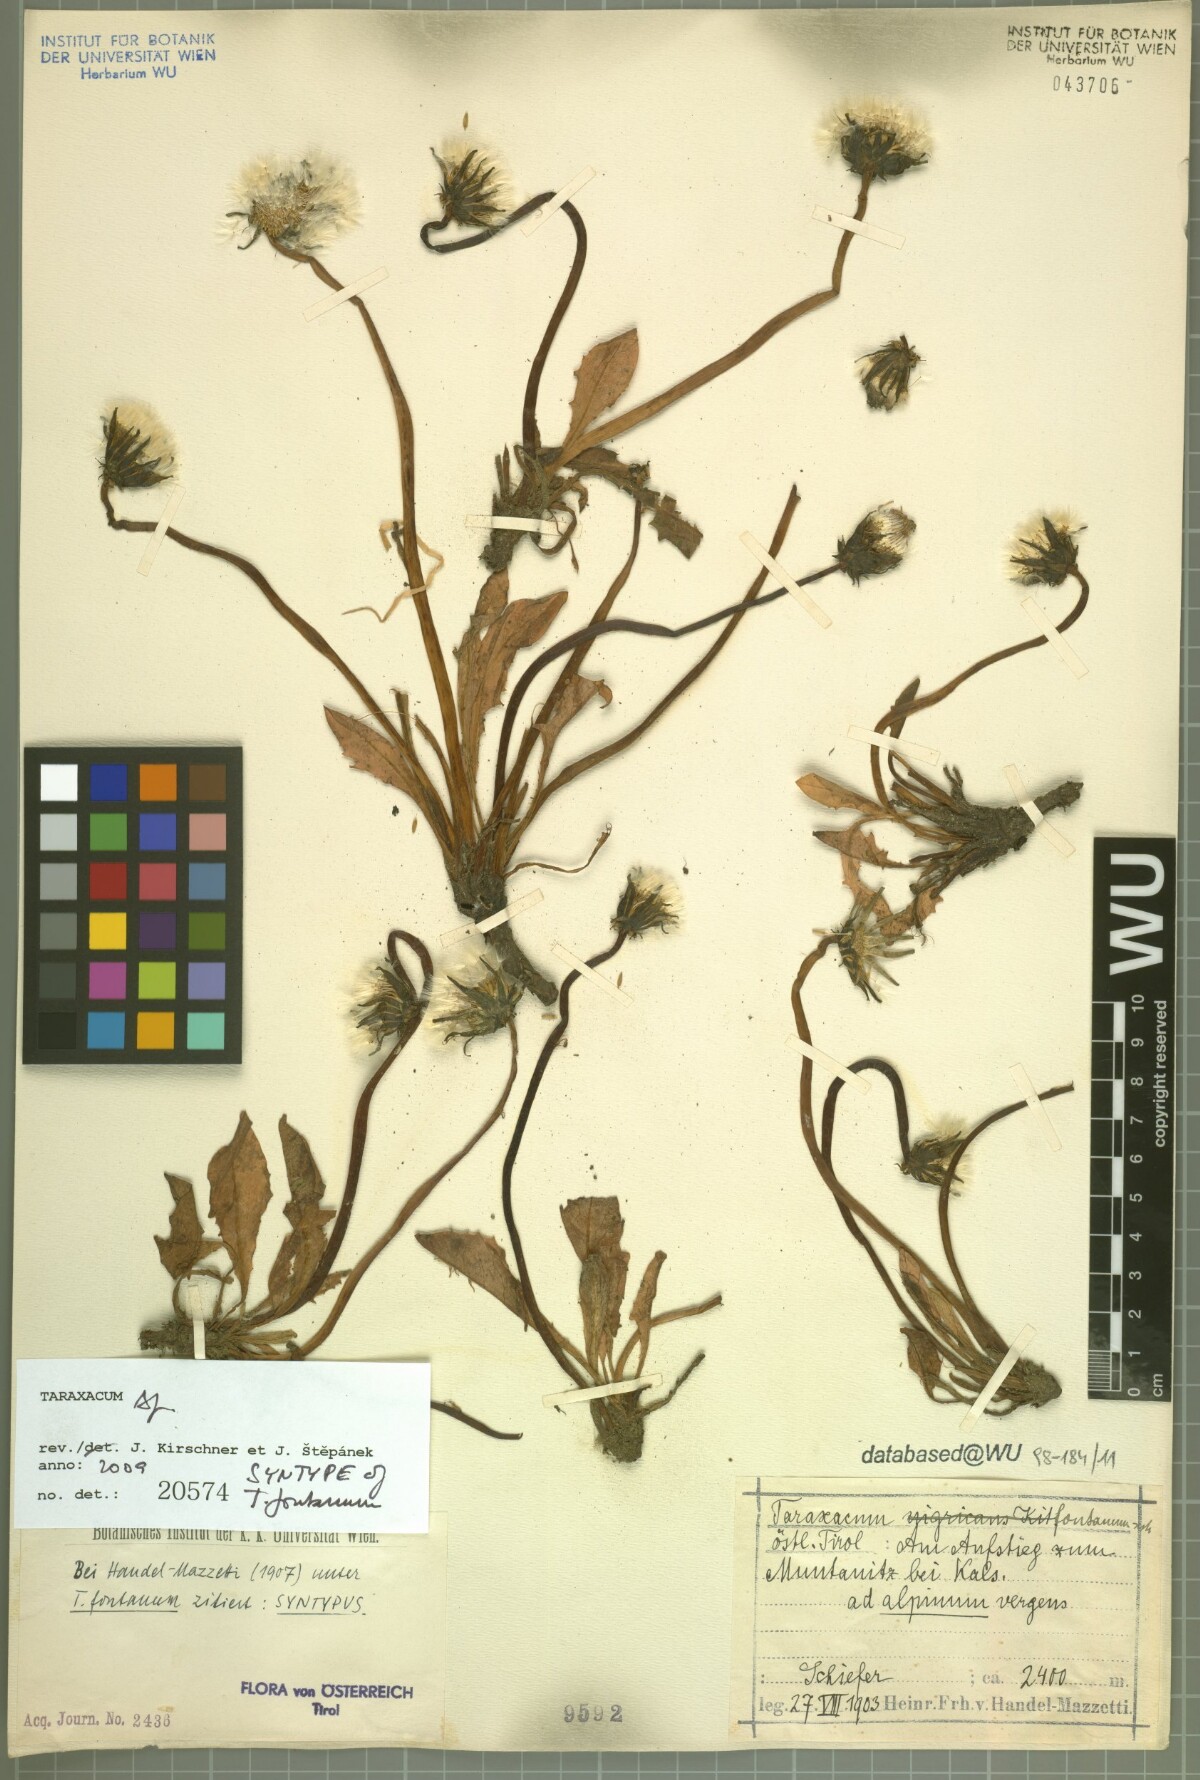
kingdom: Plantae
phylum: Tracheophyta
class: Magnoliopsida
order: Asterales
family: Asteraceae
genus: Taraxacum
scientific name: Taraxacum fontanum
